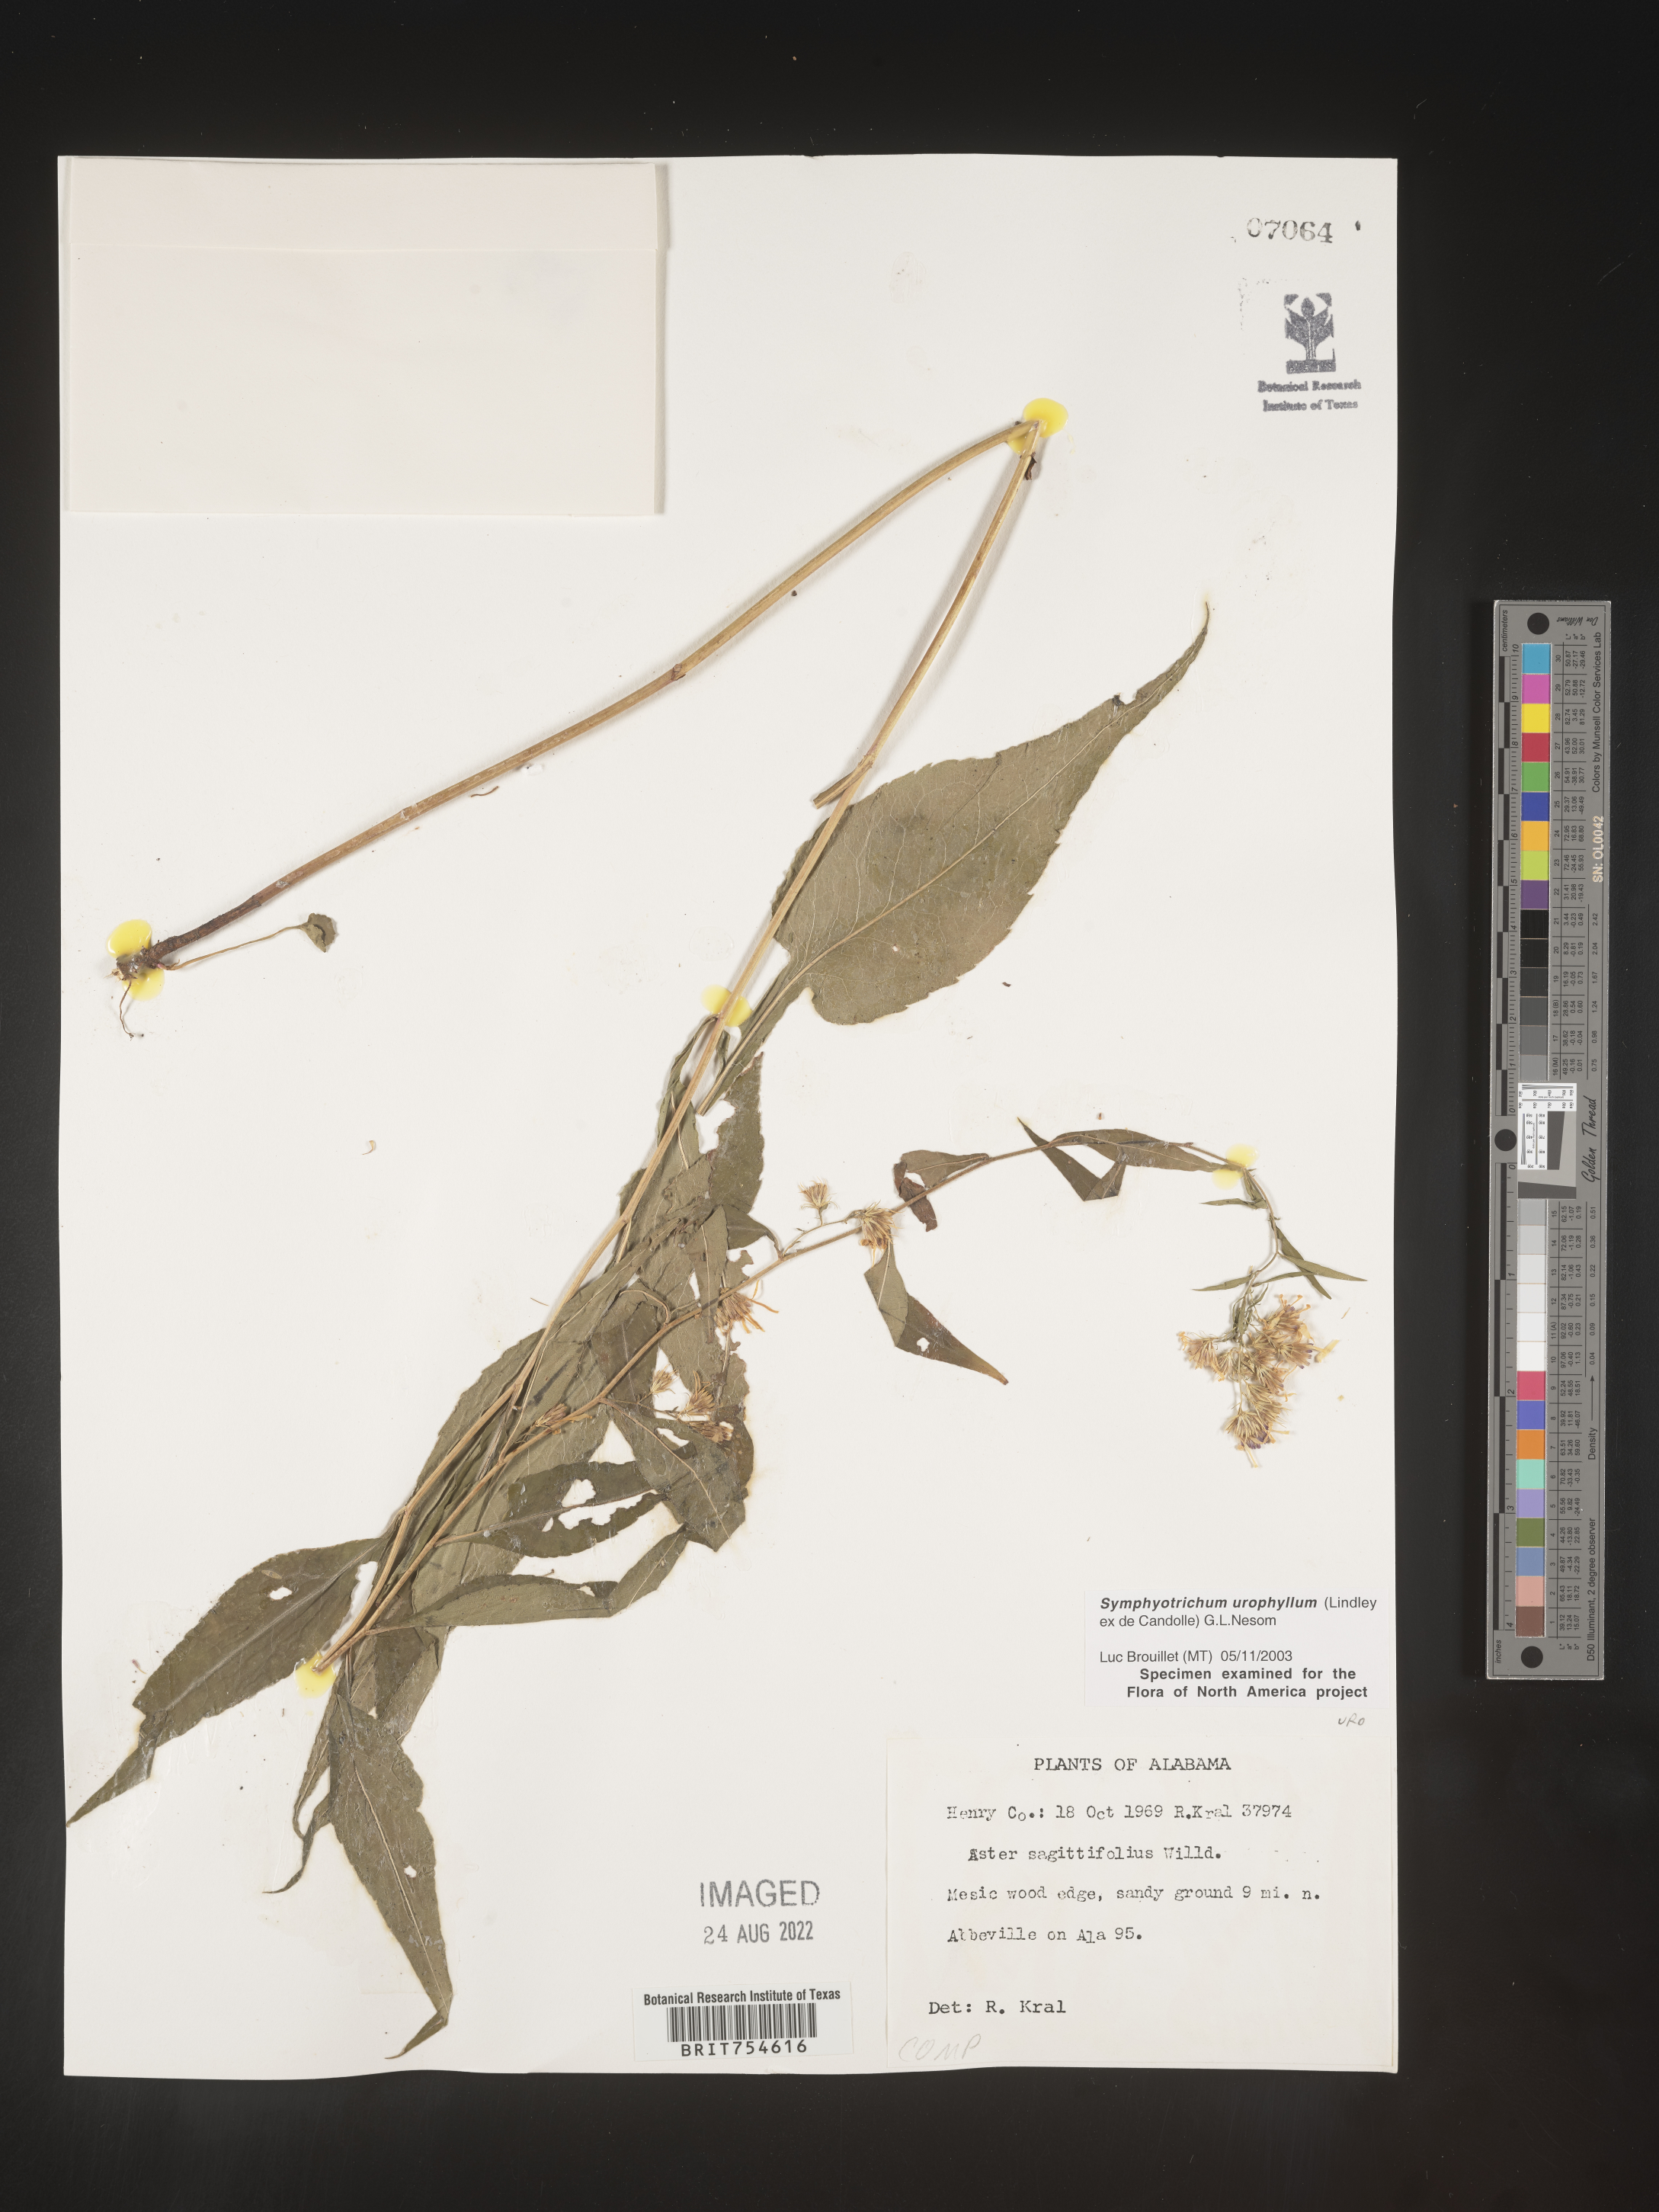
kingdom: Plantae
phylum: Tracheophyta
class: Magnoliopsida
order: Asterales
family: Asteraceae
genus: Symphyotrichum
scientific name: Symphyotrichum urophyllum
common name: Arrow-leaved aster
